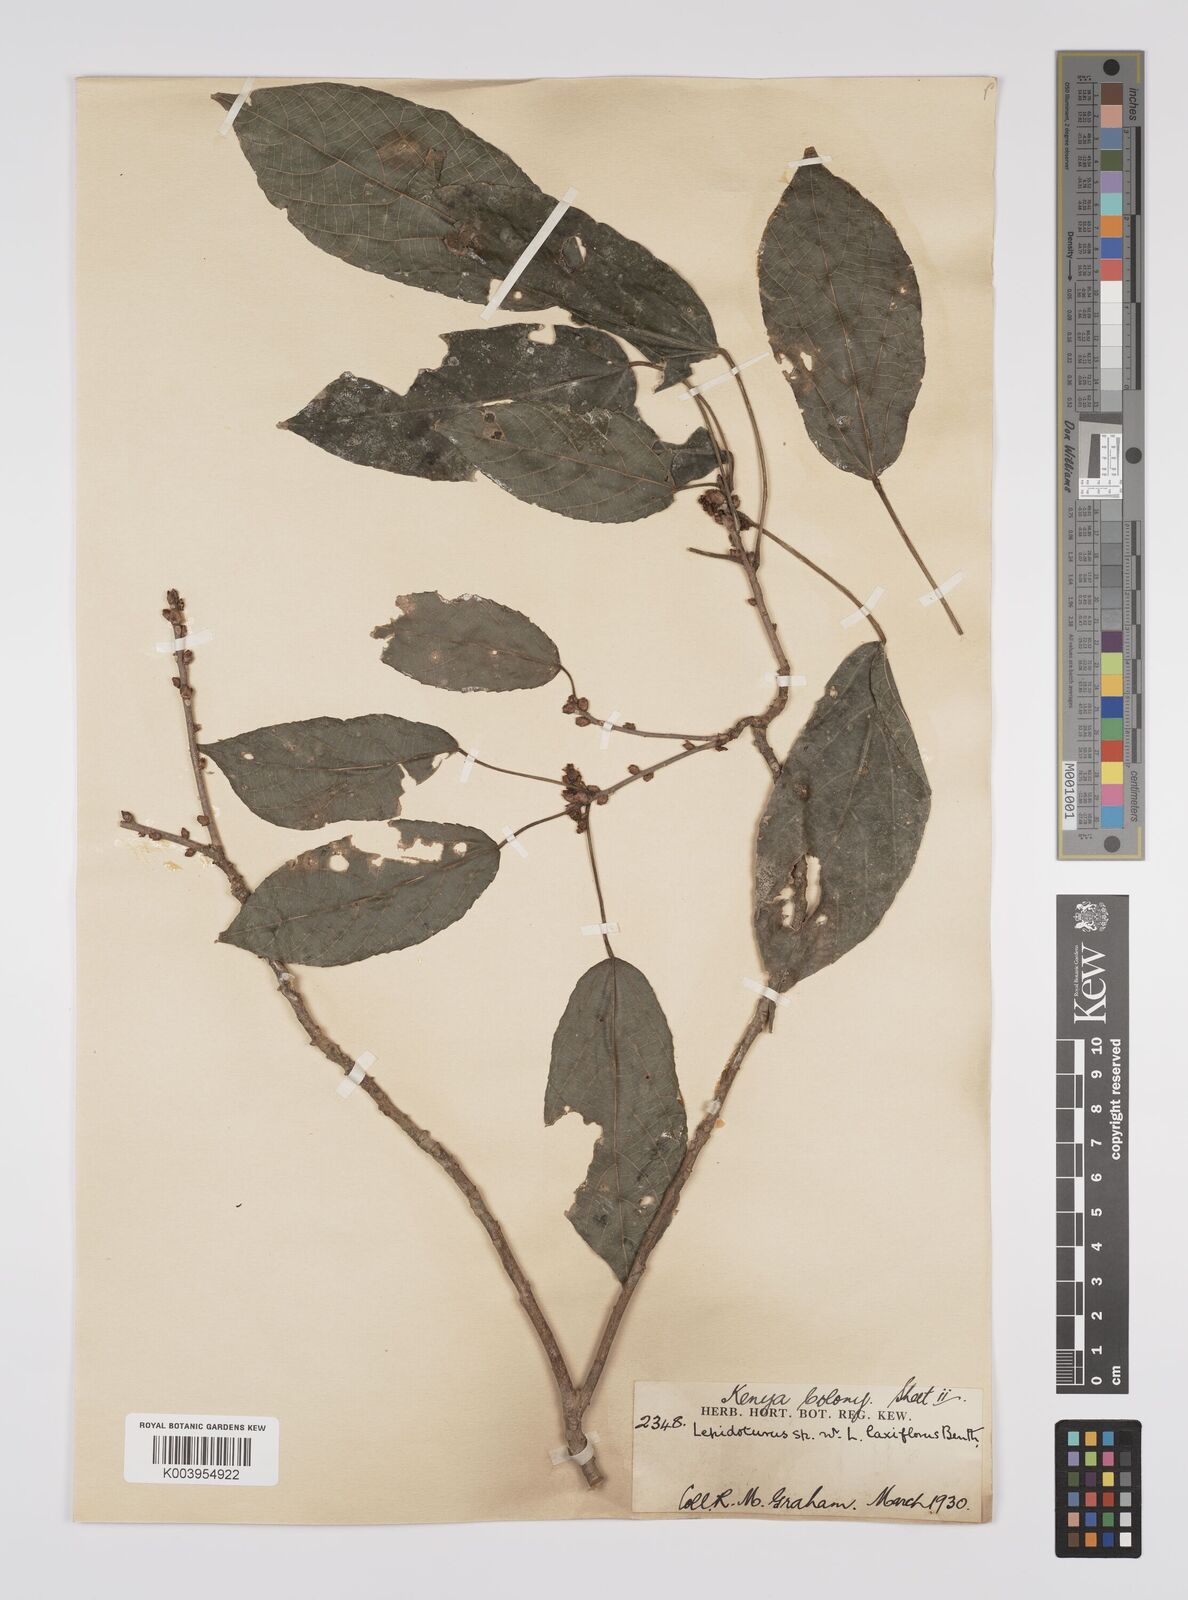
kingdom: Plantae
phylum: Tracheophyta
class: Magnoliopsida
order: Malpighiales
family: Euphorbiaceae
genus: Alchornea
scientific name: Alchornea laxiflora
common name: Lowveld bead-string
